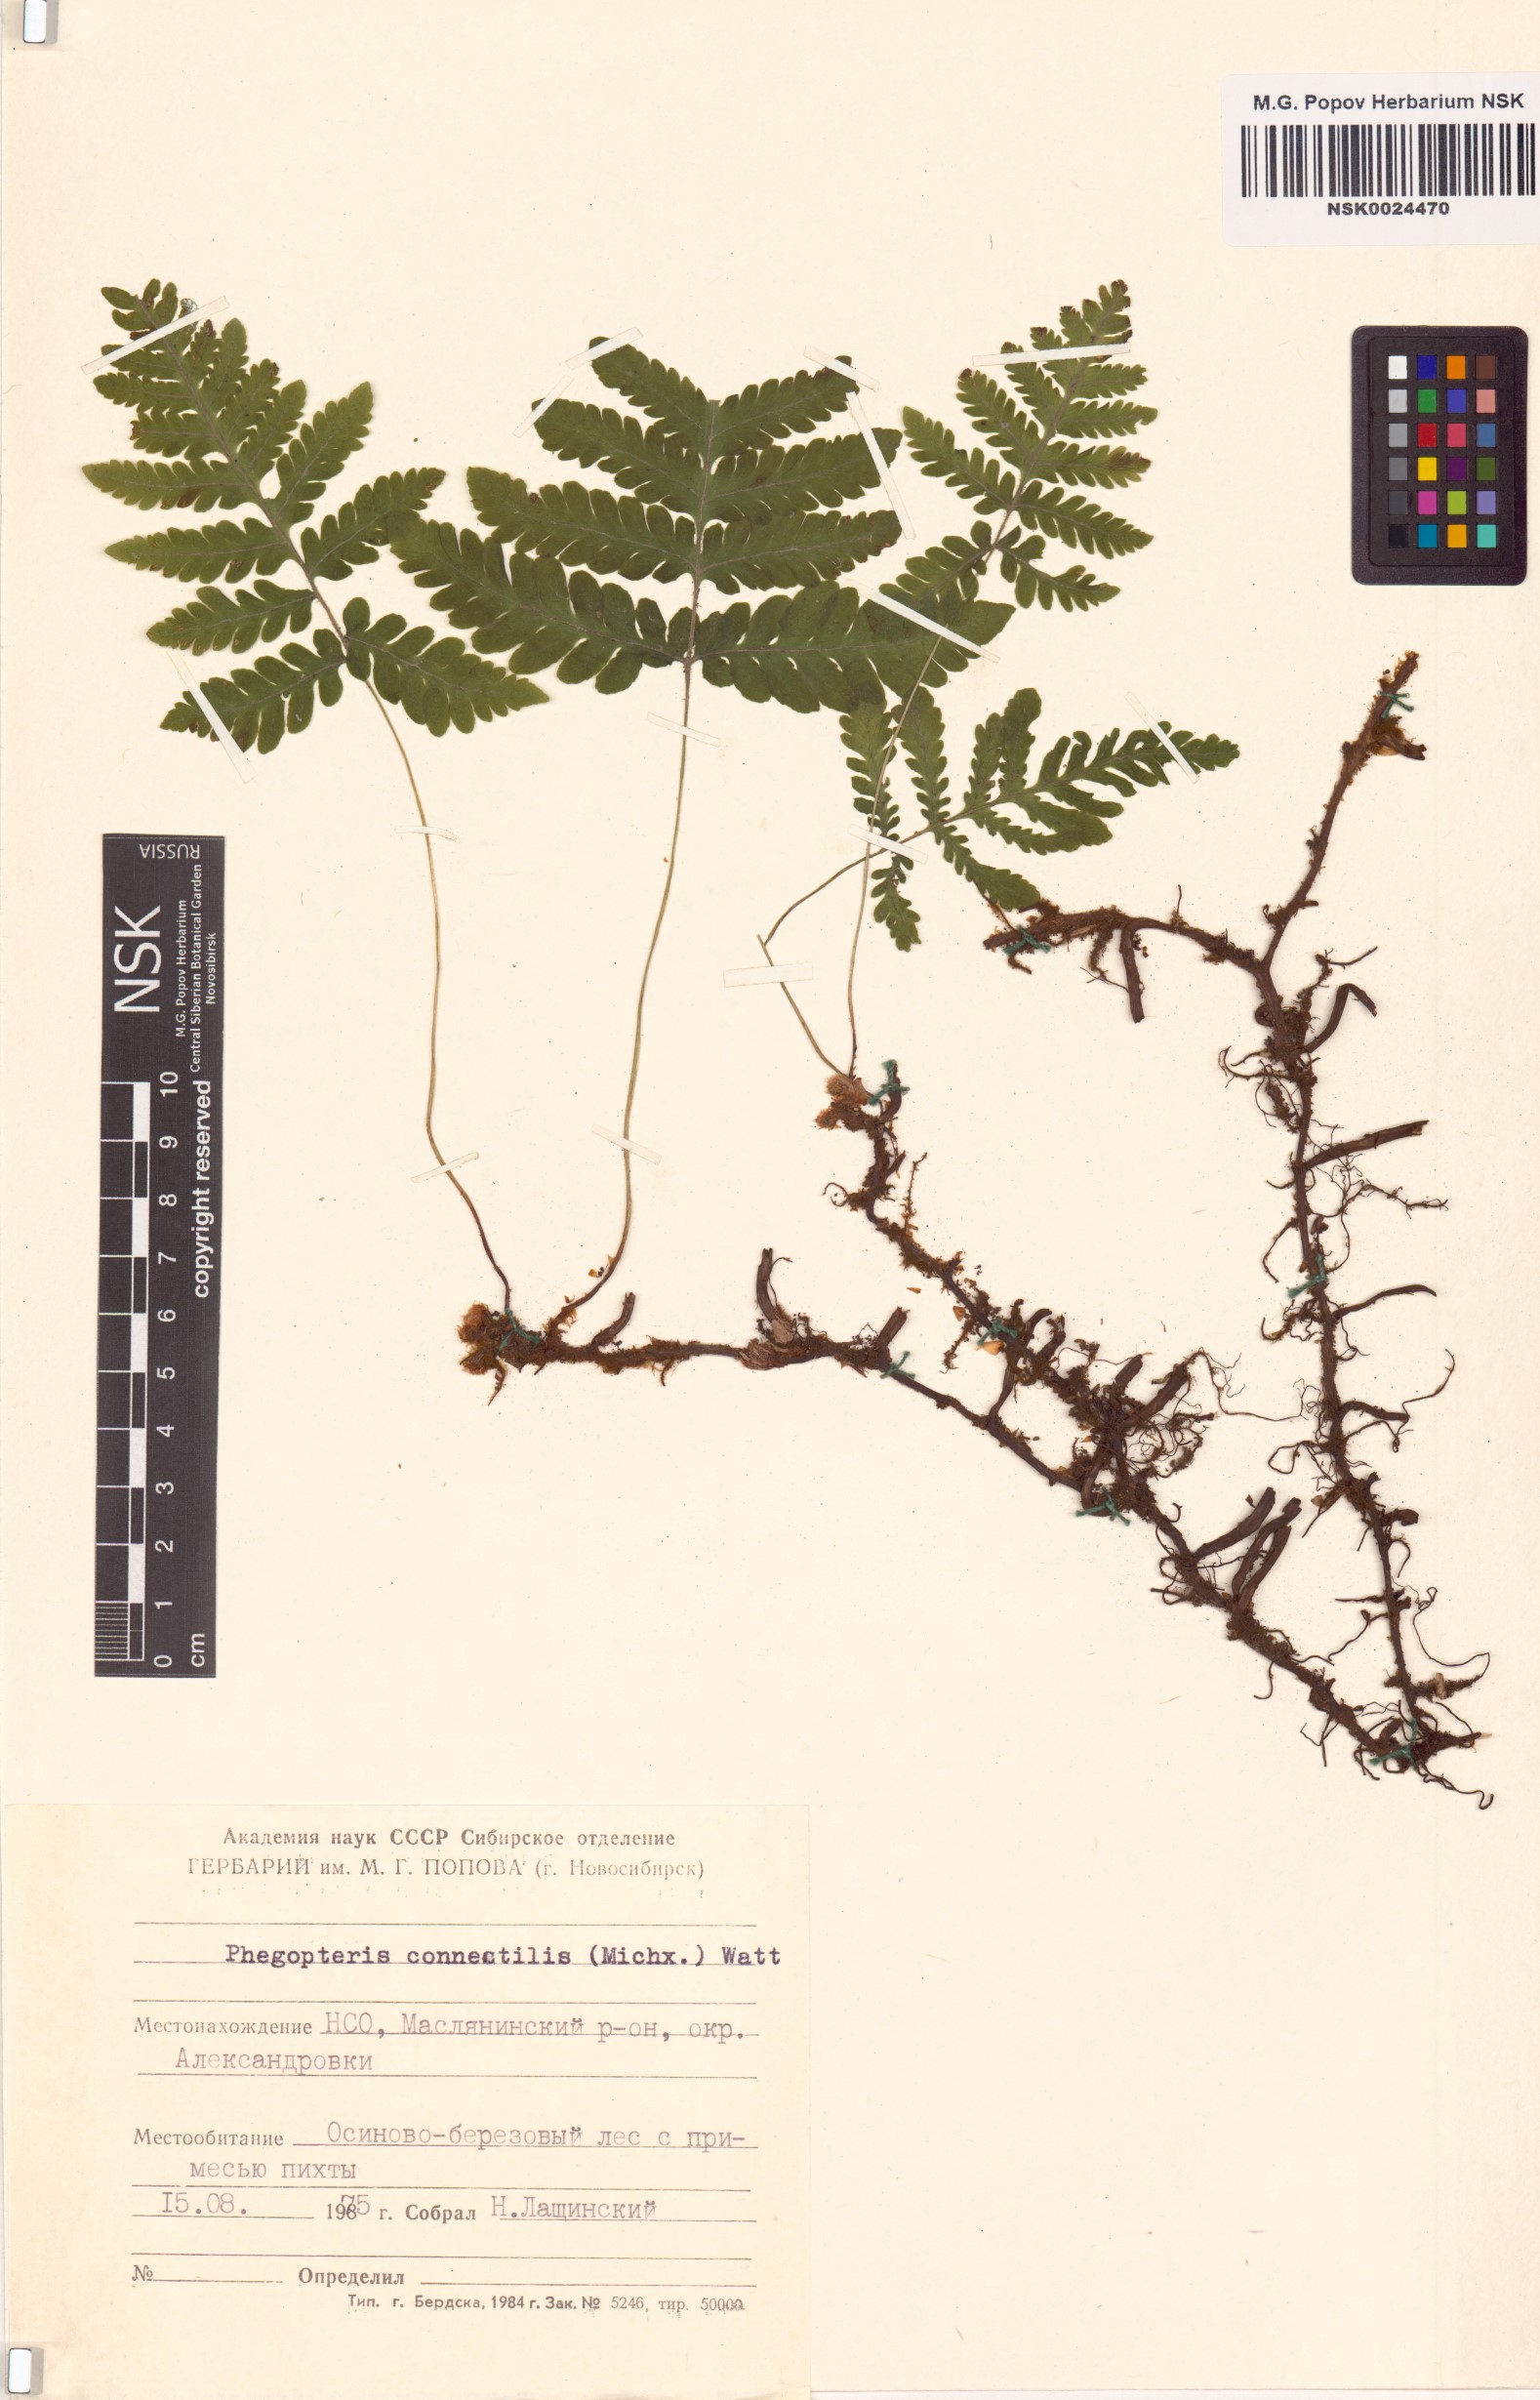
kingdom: Plantae
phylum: Tracheophyta
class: Polypodiopsida
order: Polypodiales
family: Thelypteridaceae
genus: Phegopteris
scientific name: Phegopteris connectilis
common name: Beech fern
